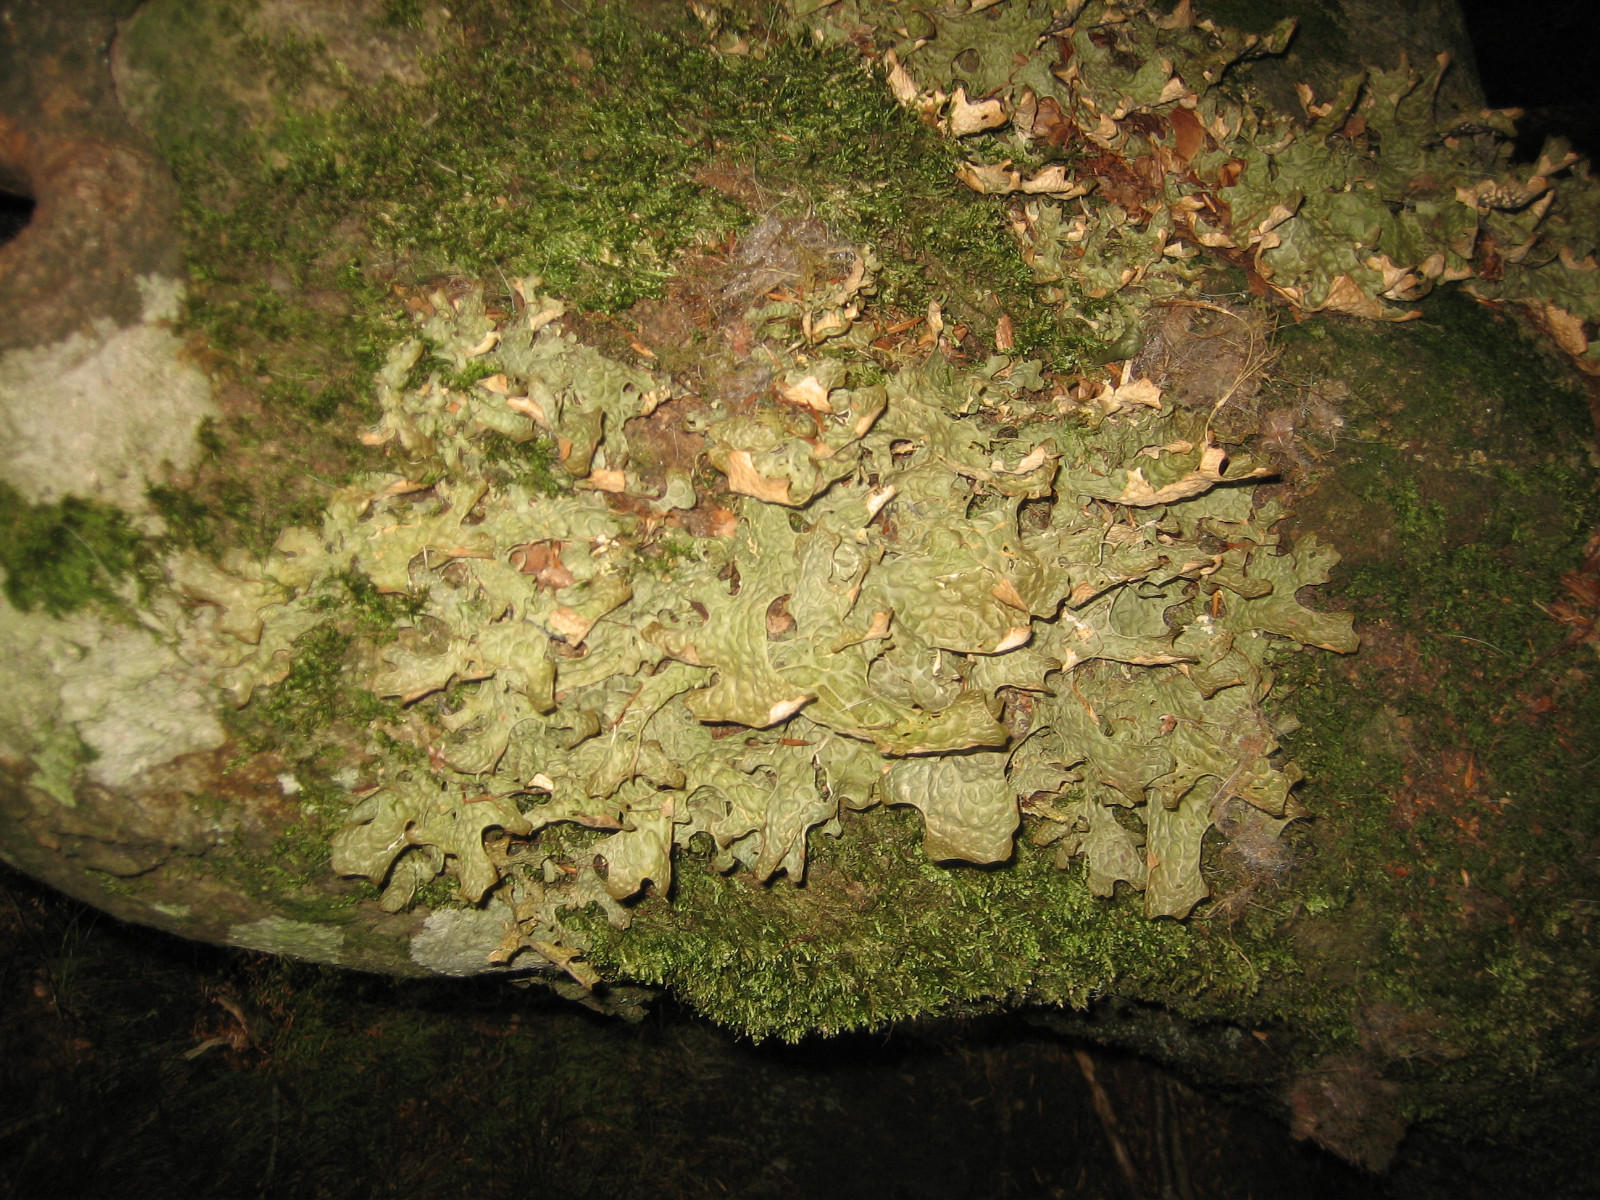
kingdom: Fungi
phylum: Ascomycota
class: Lecanoromycetes
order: Peltigerales
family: Lobariaceae
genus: Lobaria
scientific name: Lobaria pulmonaria
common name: almindelig lungelav
